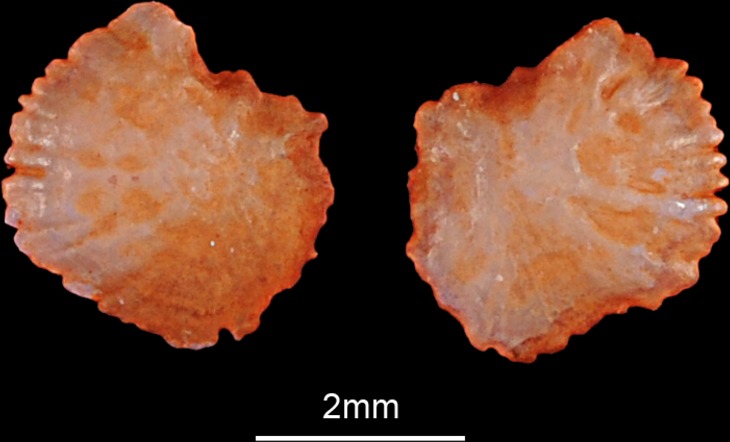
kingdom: Animalia
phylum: Chordata
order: Cypriniformes
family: Cyprinidae
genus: Leuciscus
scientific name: Leuciscus idus
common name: Ide
